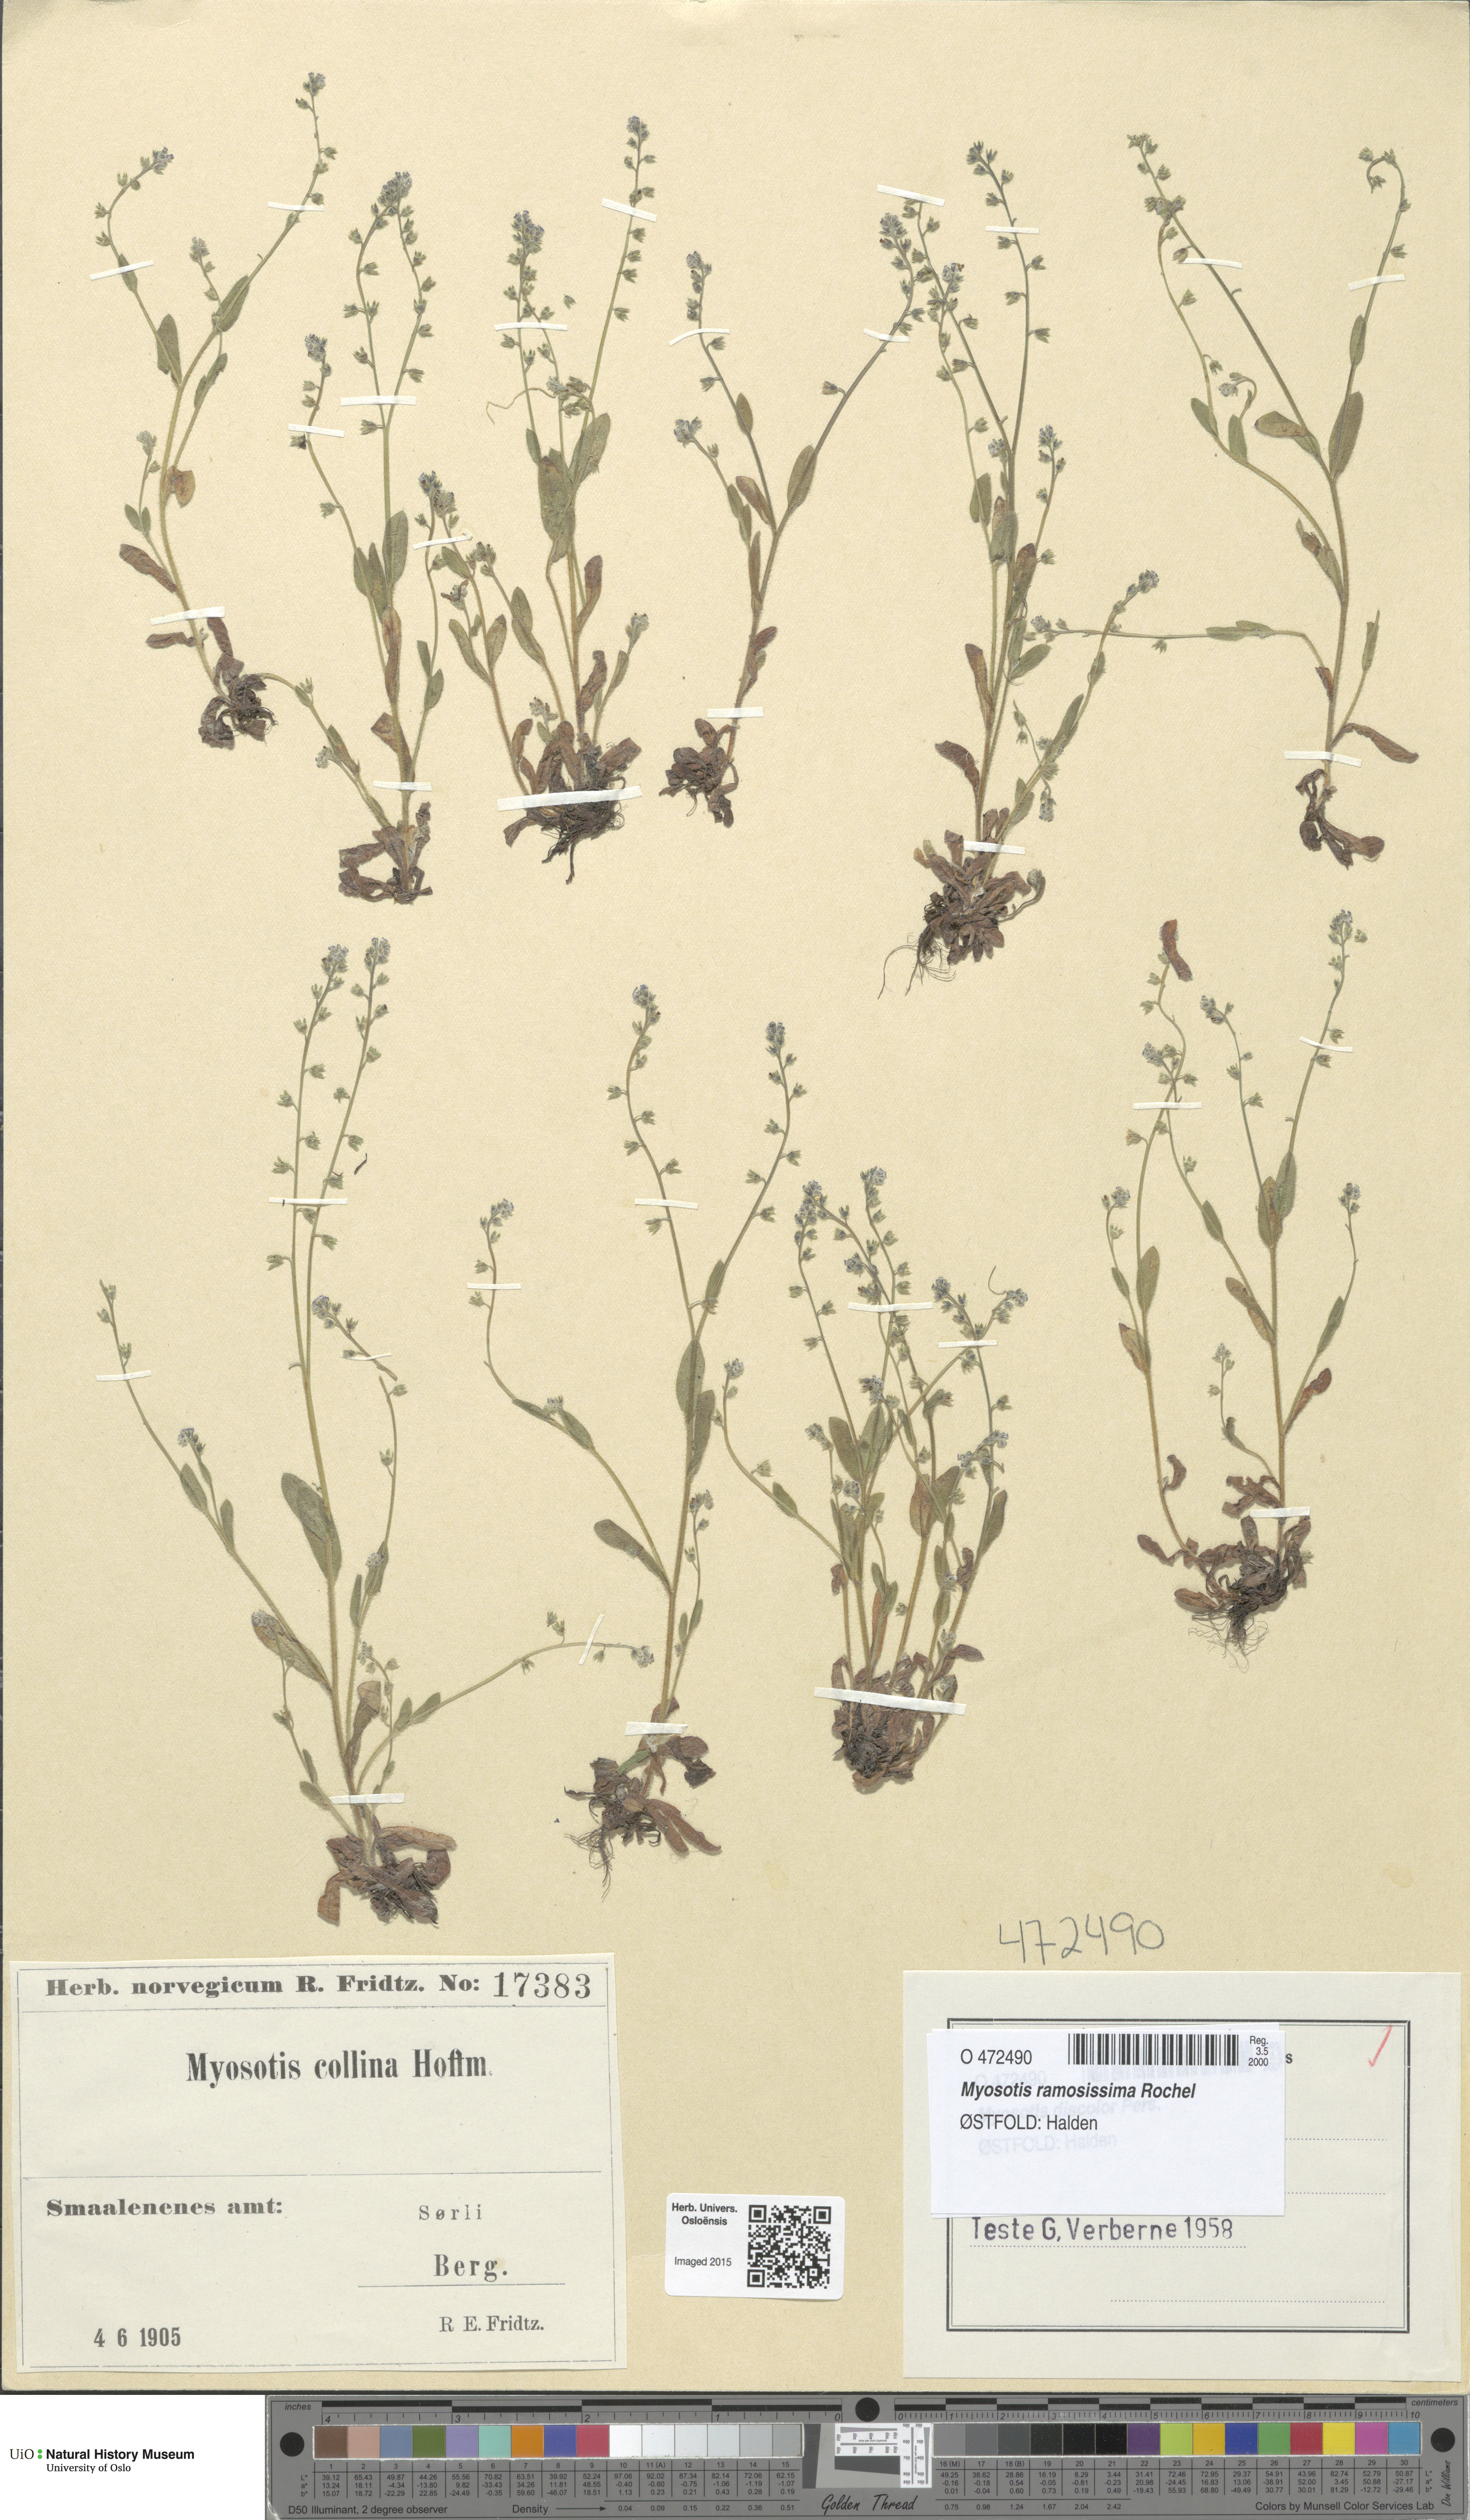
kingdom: Plantae
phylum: Tracheophyta
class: Magnoliopsida
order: Boraginales
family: Boraginaceae
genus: Myosotis
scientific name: Myosotis ramosissima
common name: Early forget-me-not
